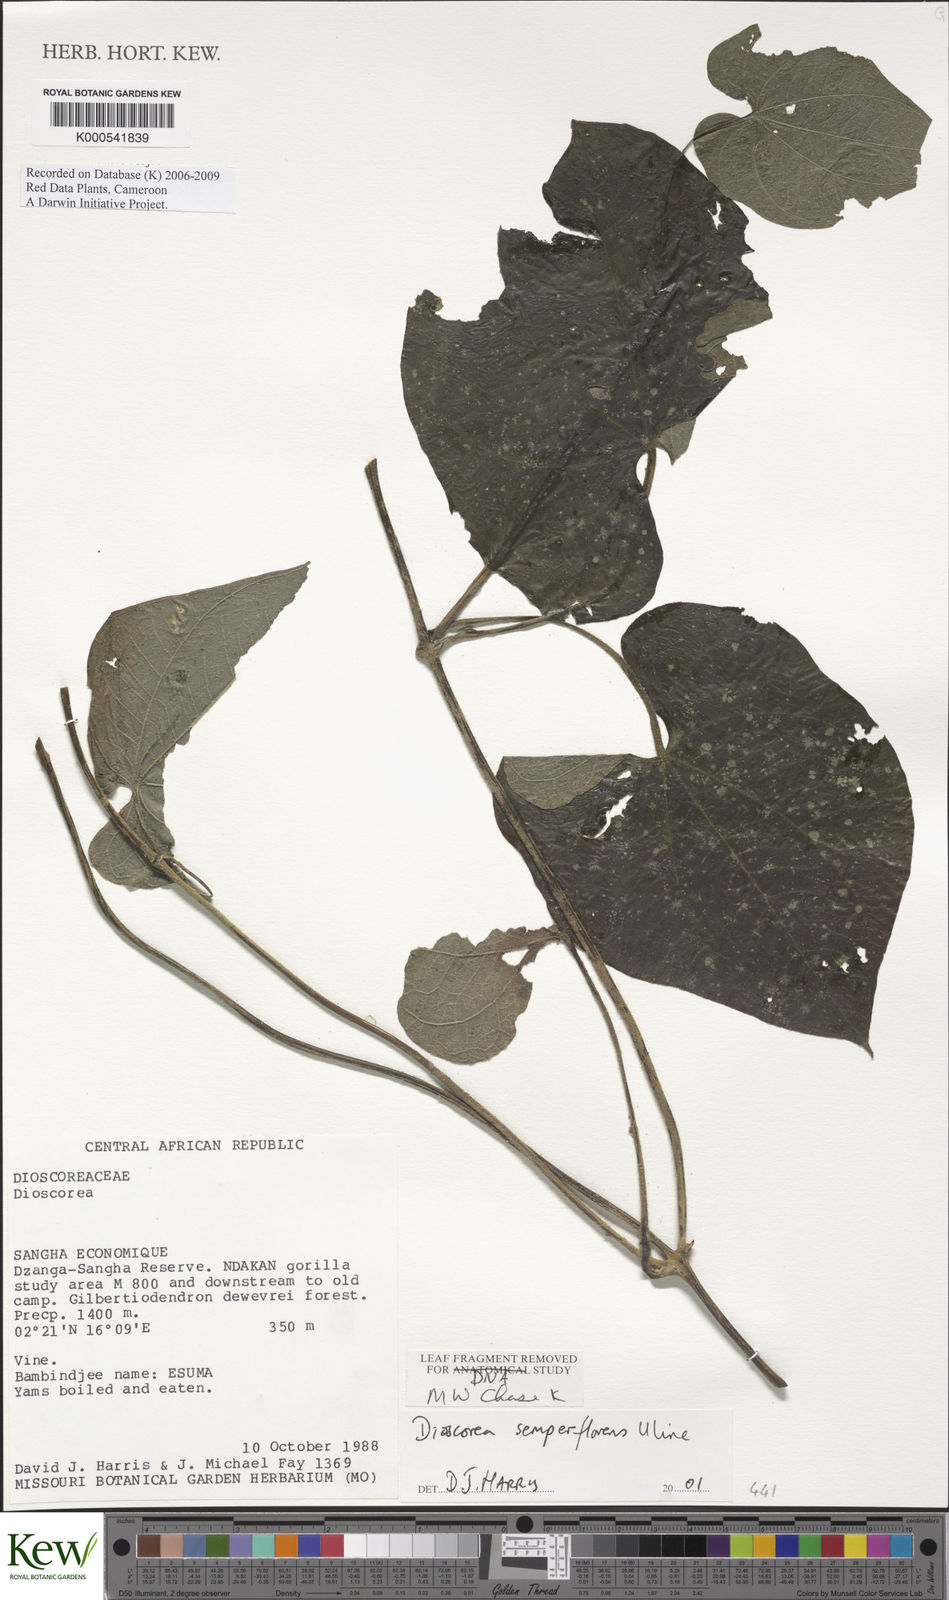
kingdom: Plantae
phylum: Tracheophyta
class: Liliopsida
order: Dioscoreales
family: Dioscoreaceae
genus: Dioscorea
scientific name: Dioscorea semperflorens
